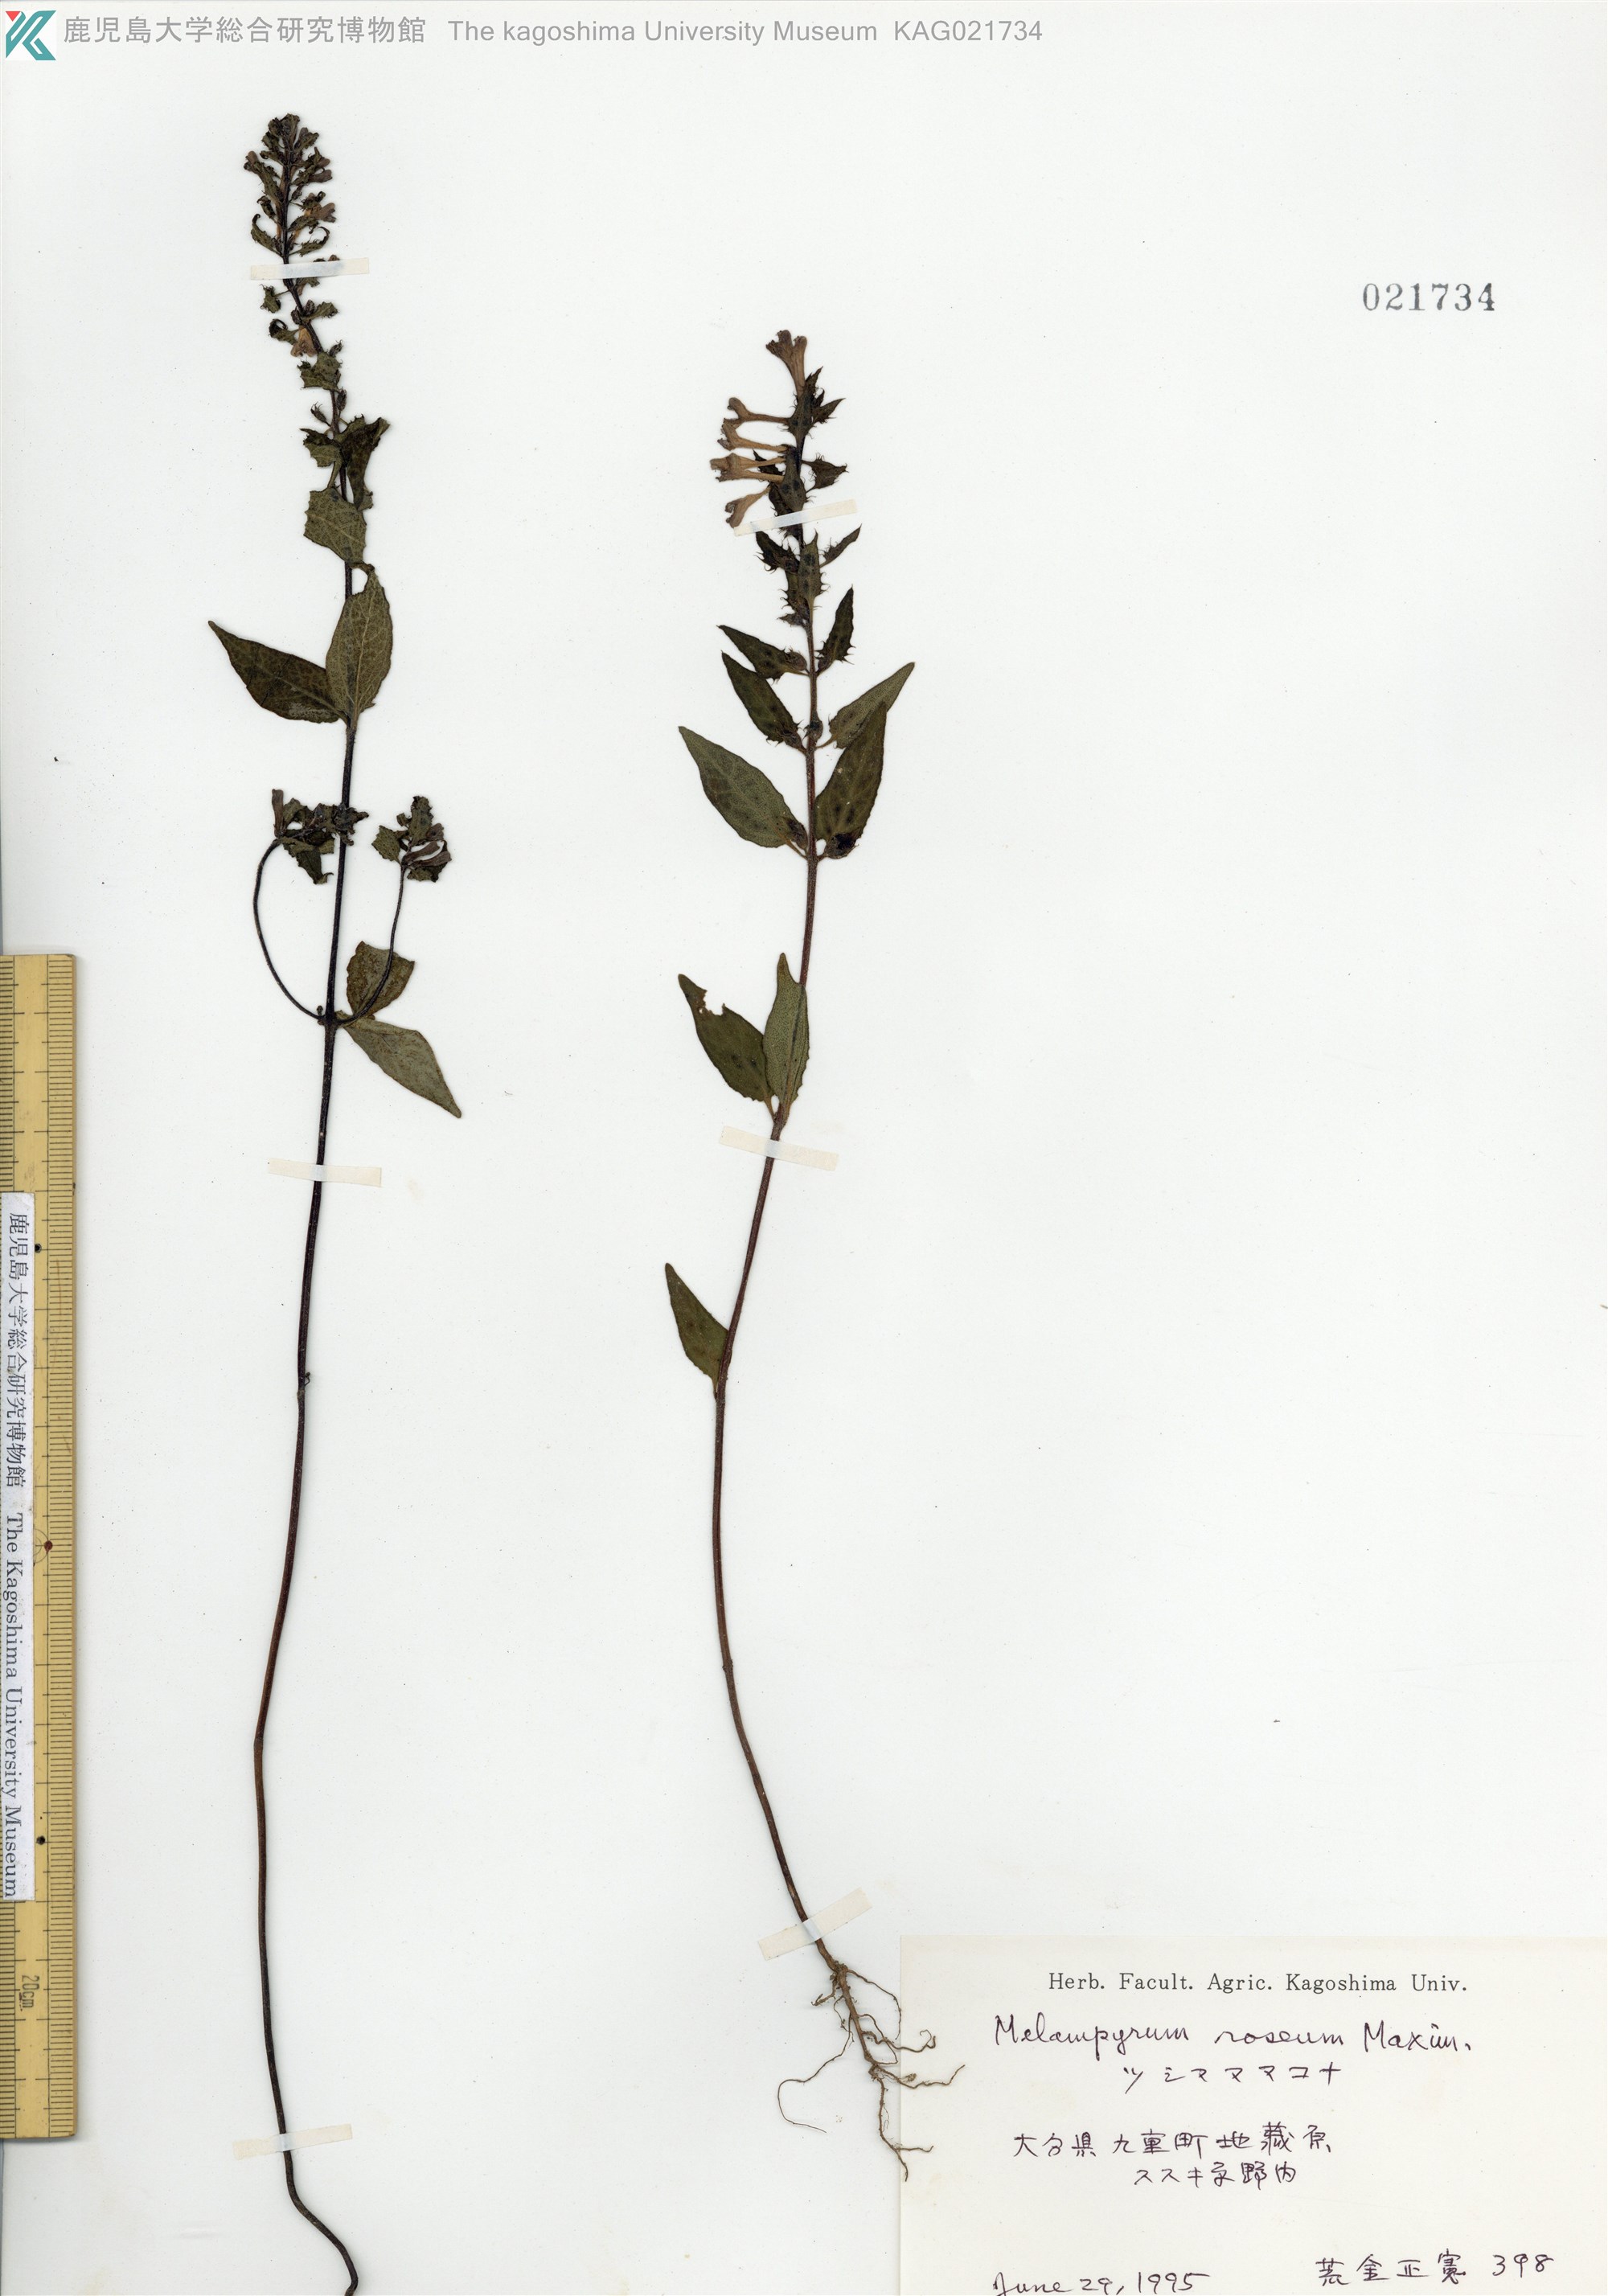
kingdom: Plantae
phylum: Tracheophyta
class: Magnoliopsida
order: Lamiales
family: Orobanchaceae
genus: Melampyrum
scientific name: Melampyrum roseum
